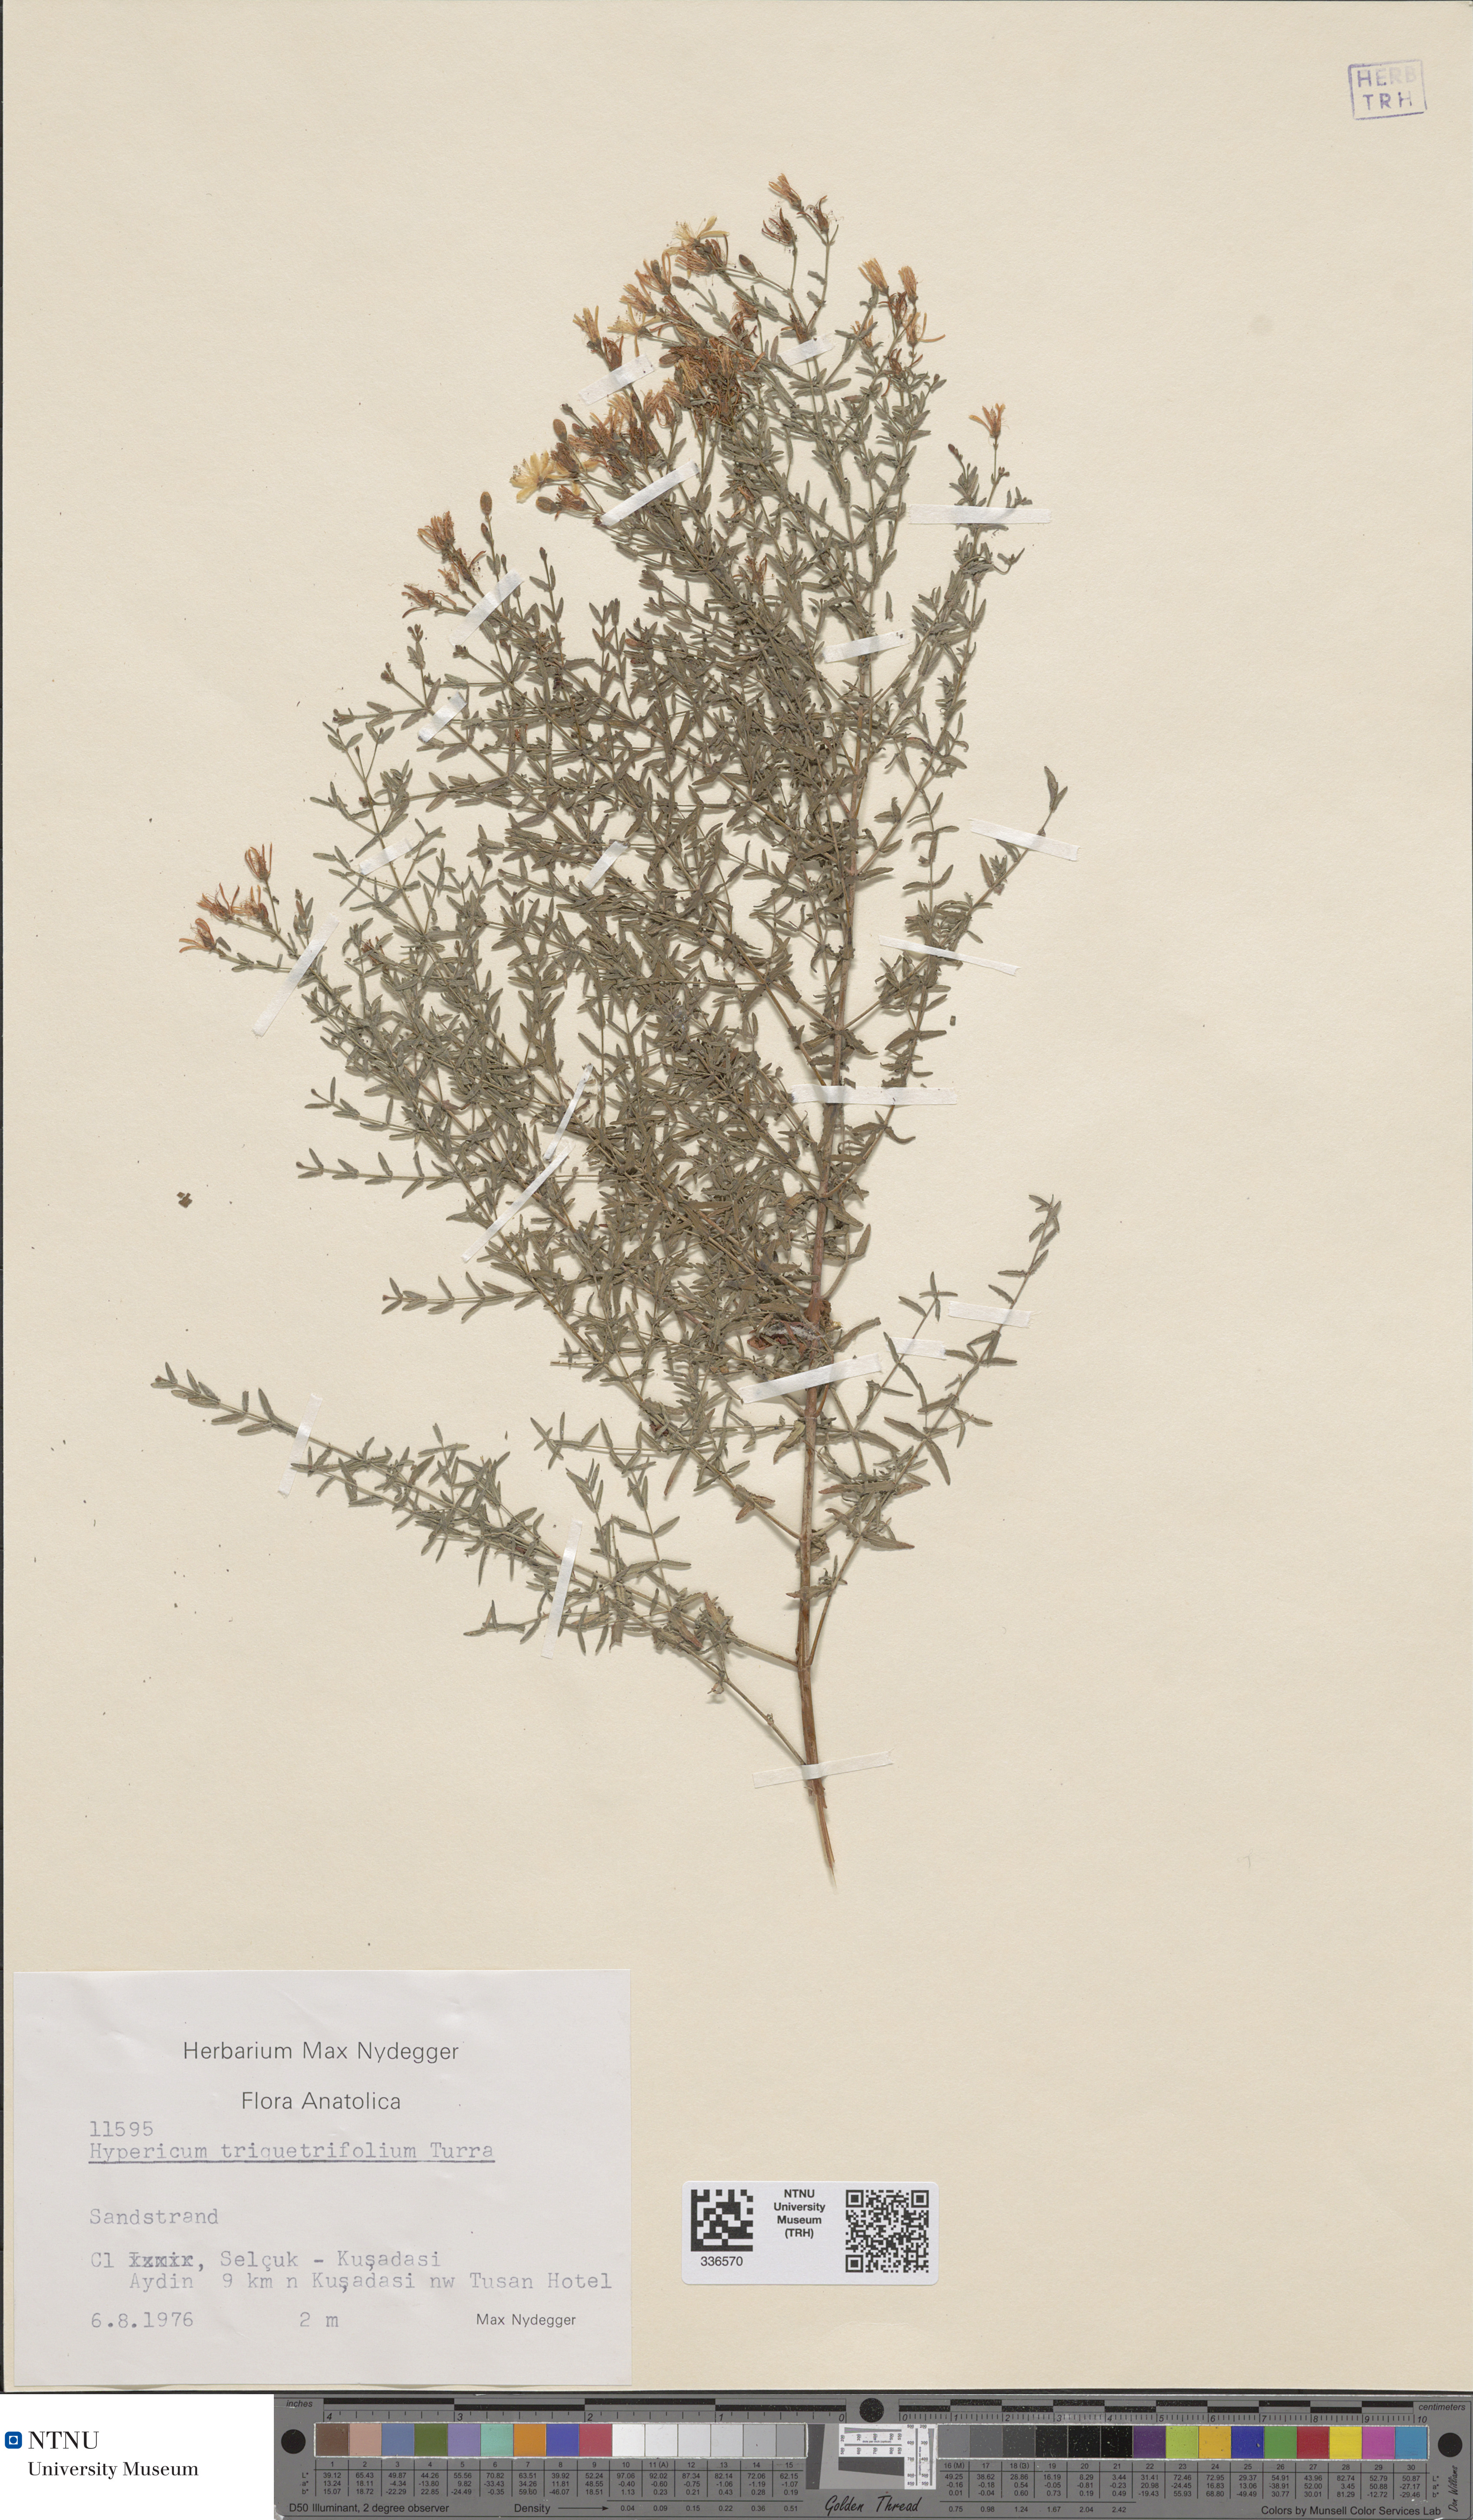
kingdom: Plantae
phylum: Tracheophyta
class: Magnoliopsida
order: Malpighiales
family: Hypericaceae
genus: Hypericum
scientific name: Hypericum triquetrifolium
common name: Tangled hypericum
